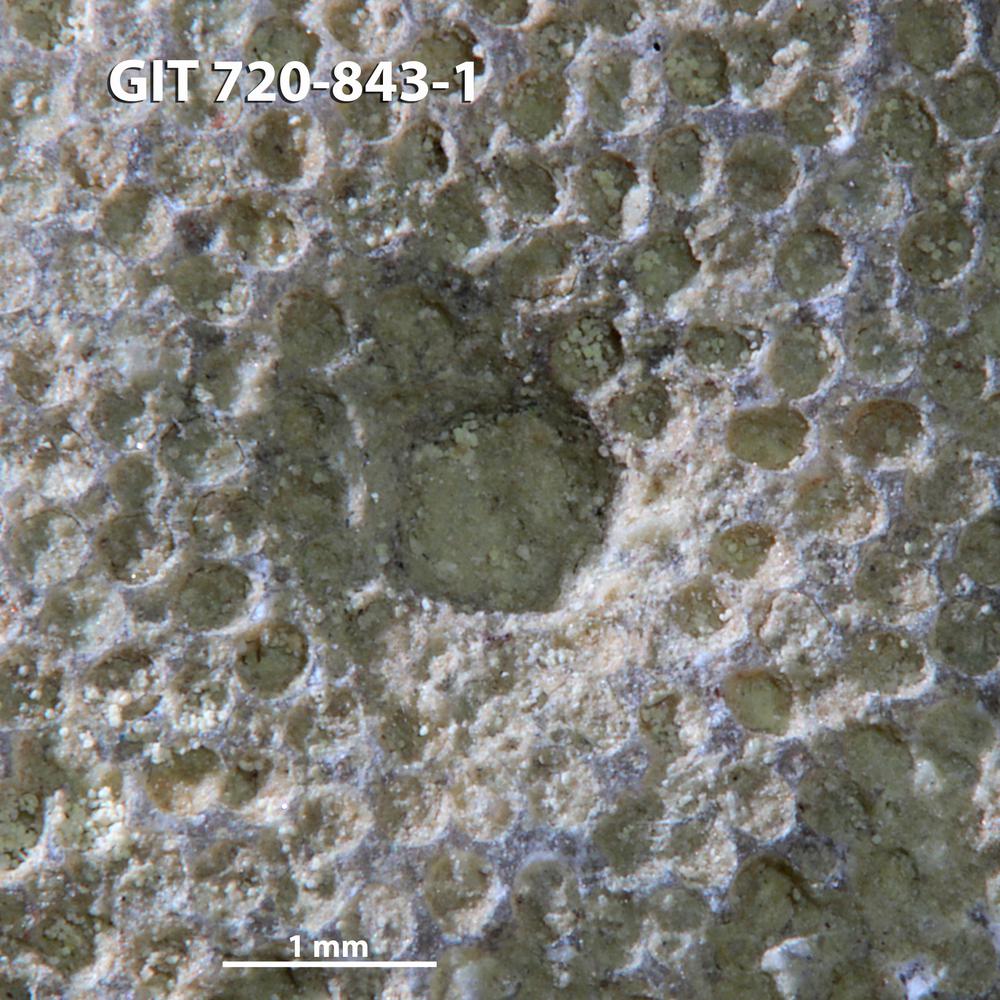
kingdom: Animalia
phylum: Annelida
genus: Anoigmaichnus
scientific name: Anoigmaichnus
